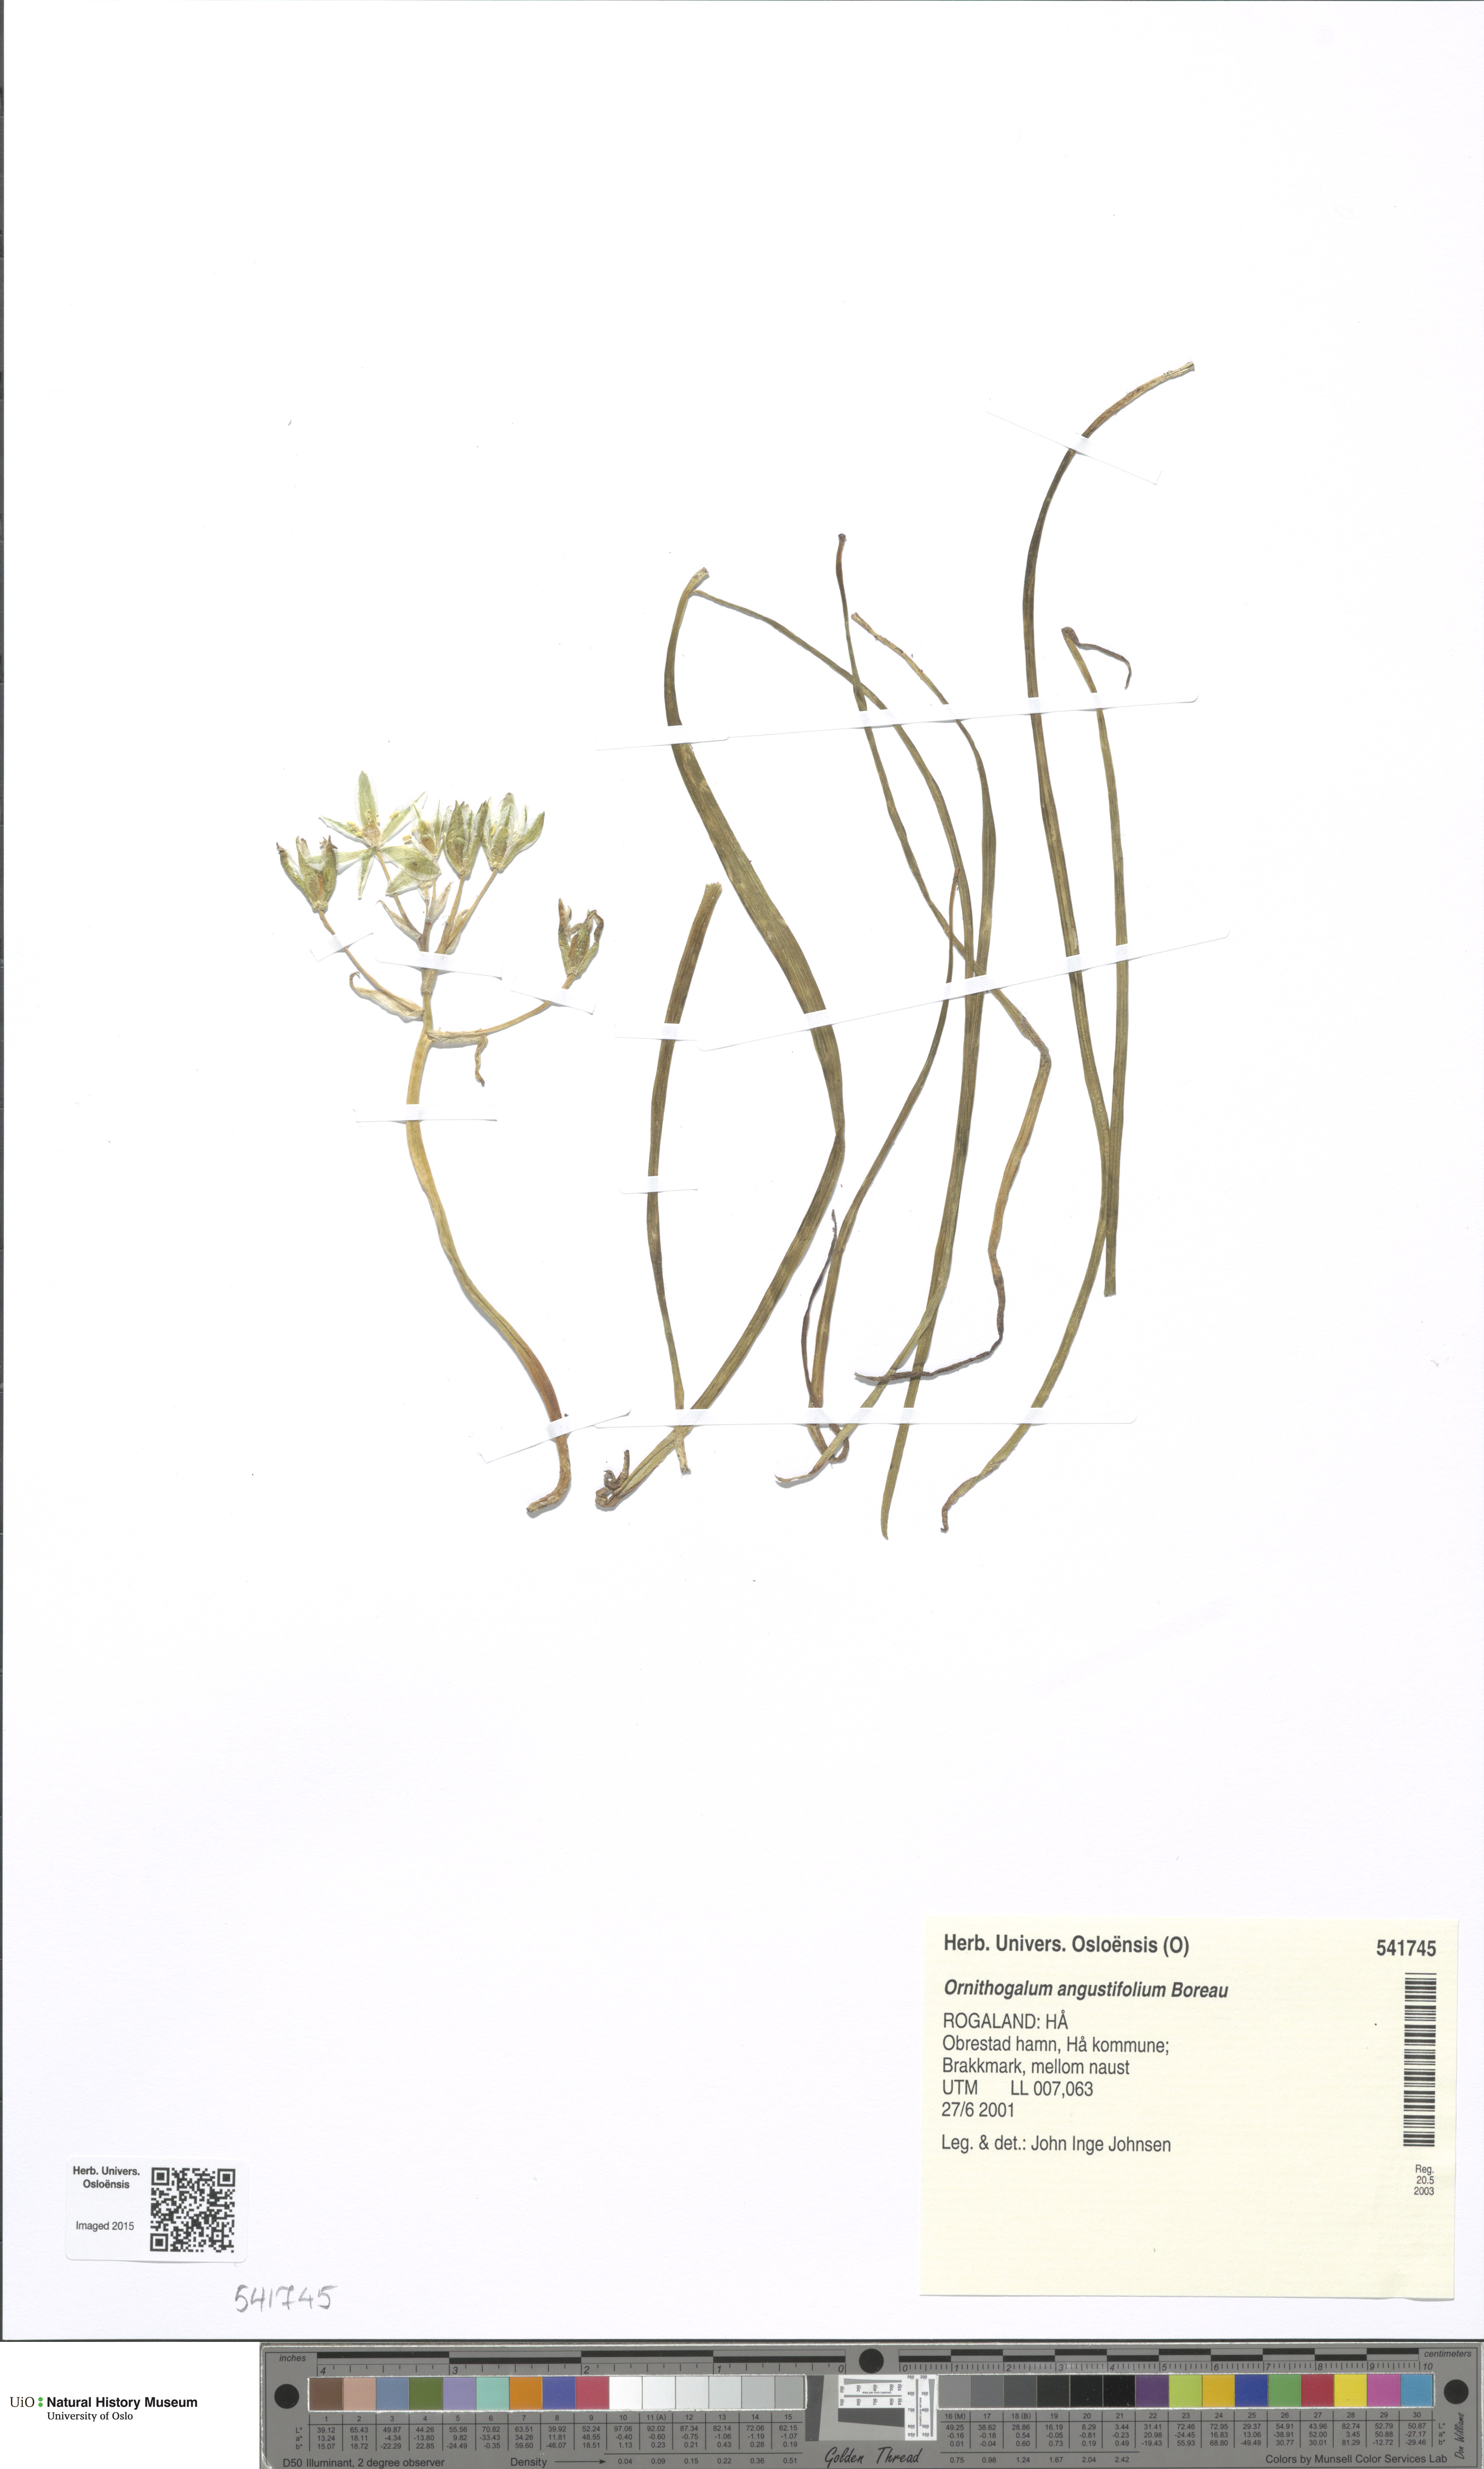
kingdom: Plantae
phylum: Tracheophyta
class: Liliopsida
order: Asparagales
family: Asparagaceae
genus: Ornithogalum
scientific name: Ornithogalum umbellatum
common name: Garden star-of-bethlehem
